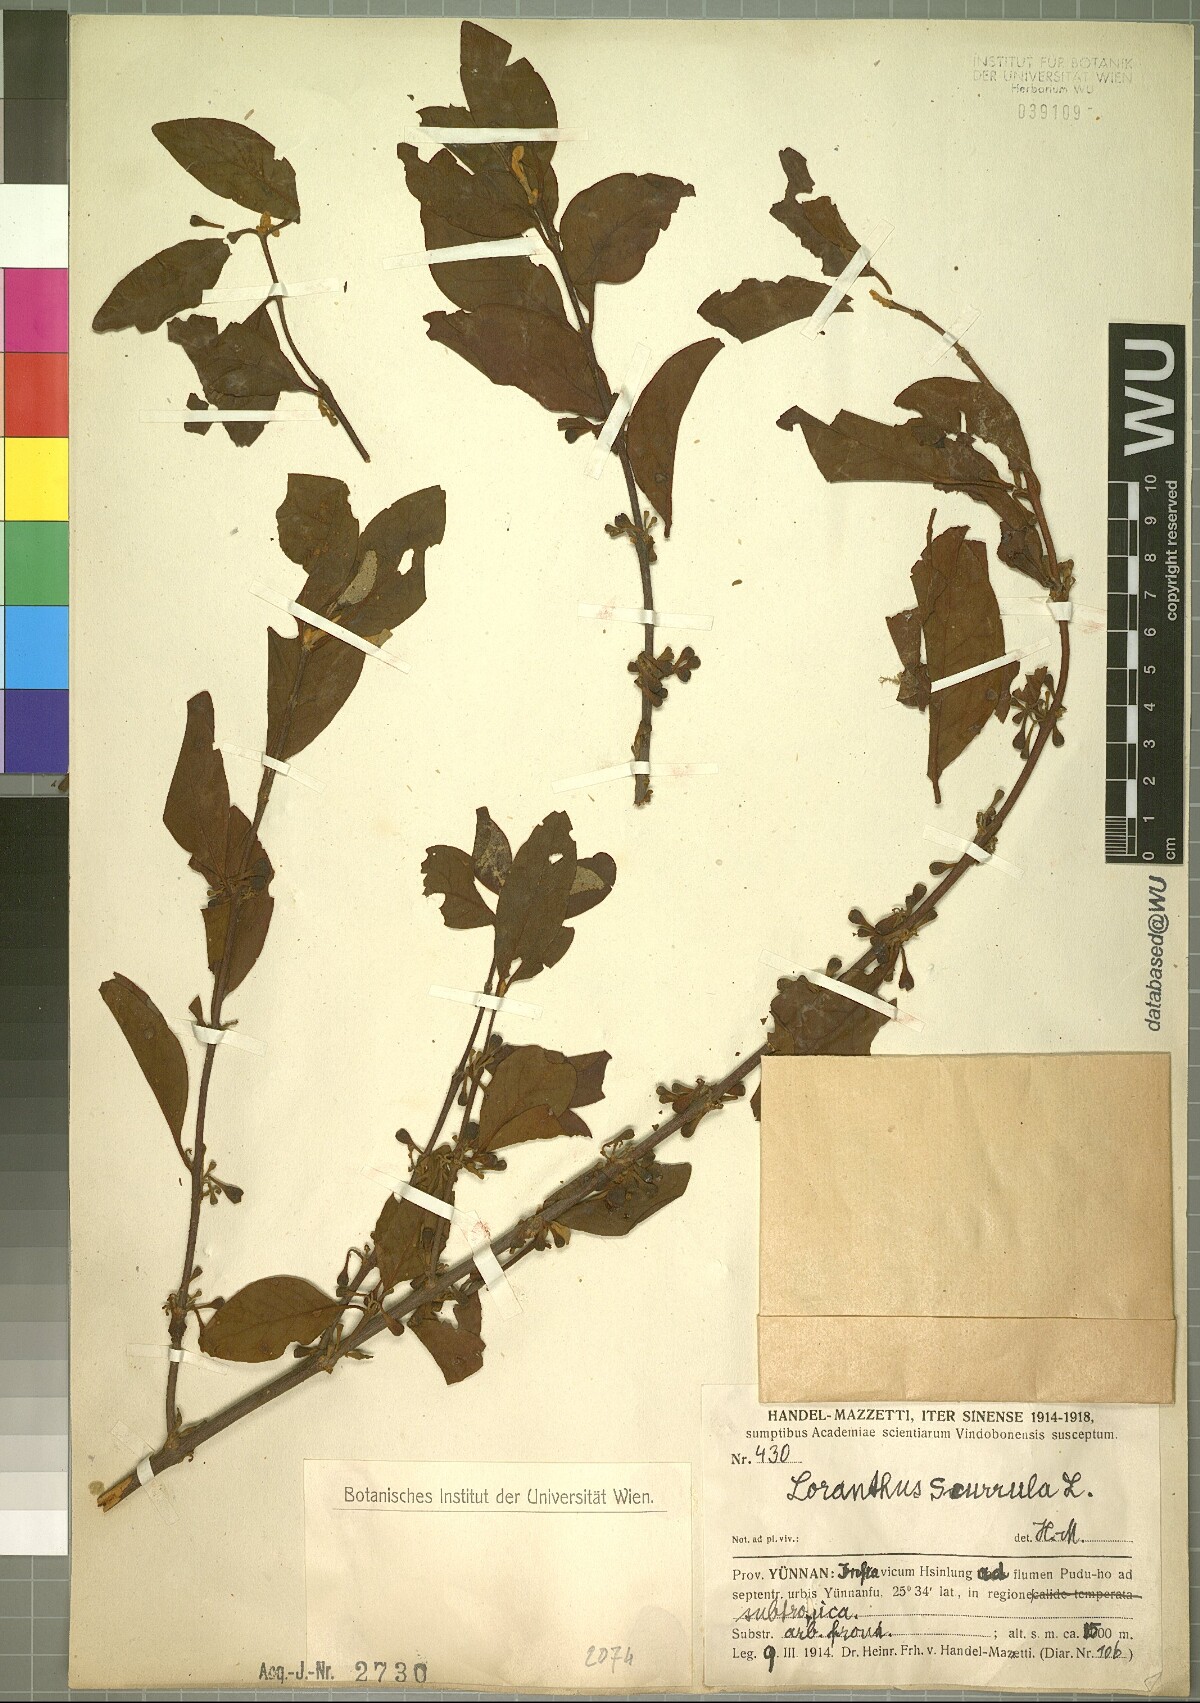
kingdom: Plantae
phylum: Tracheophyta
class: Magnoliopsida
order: Santalales
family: Loranthaceae
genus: Scurrula
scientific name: Scurrula parasitica
